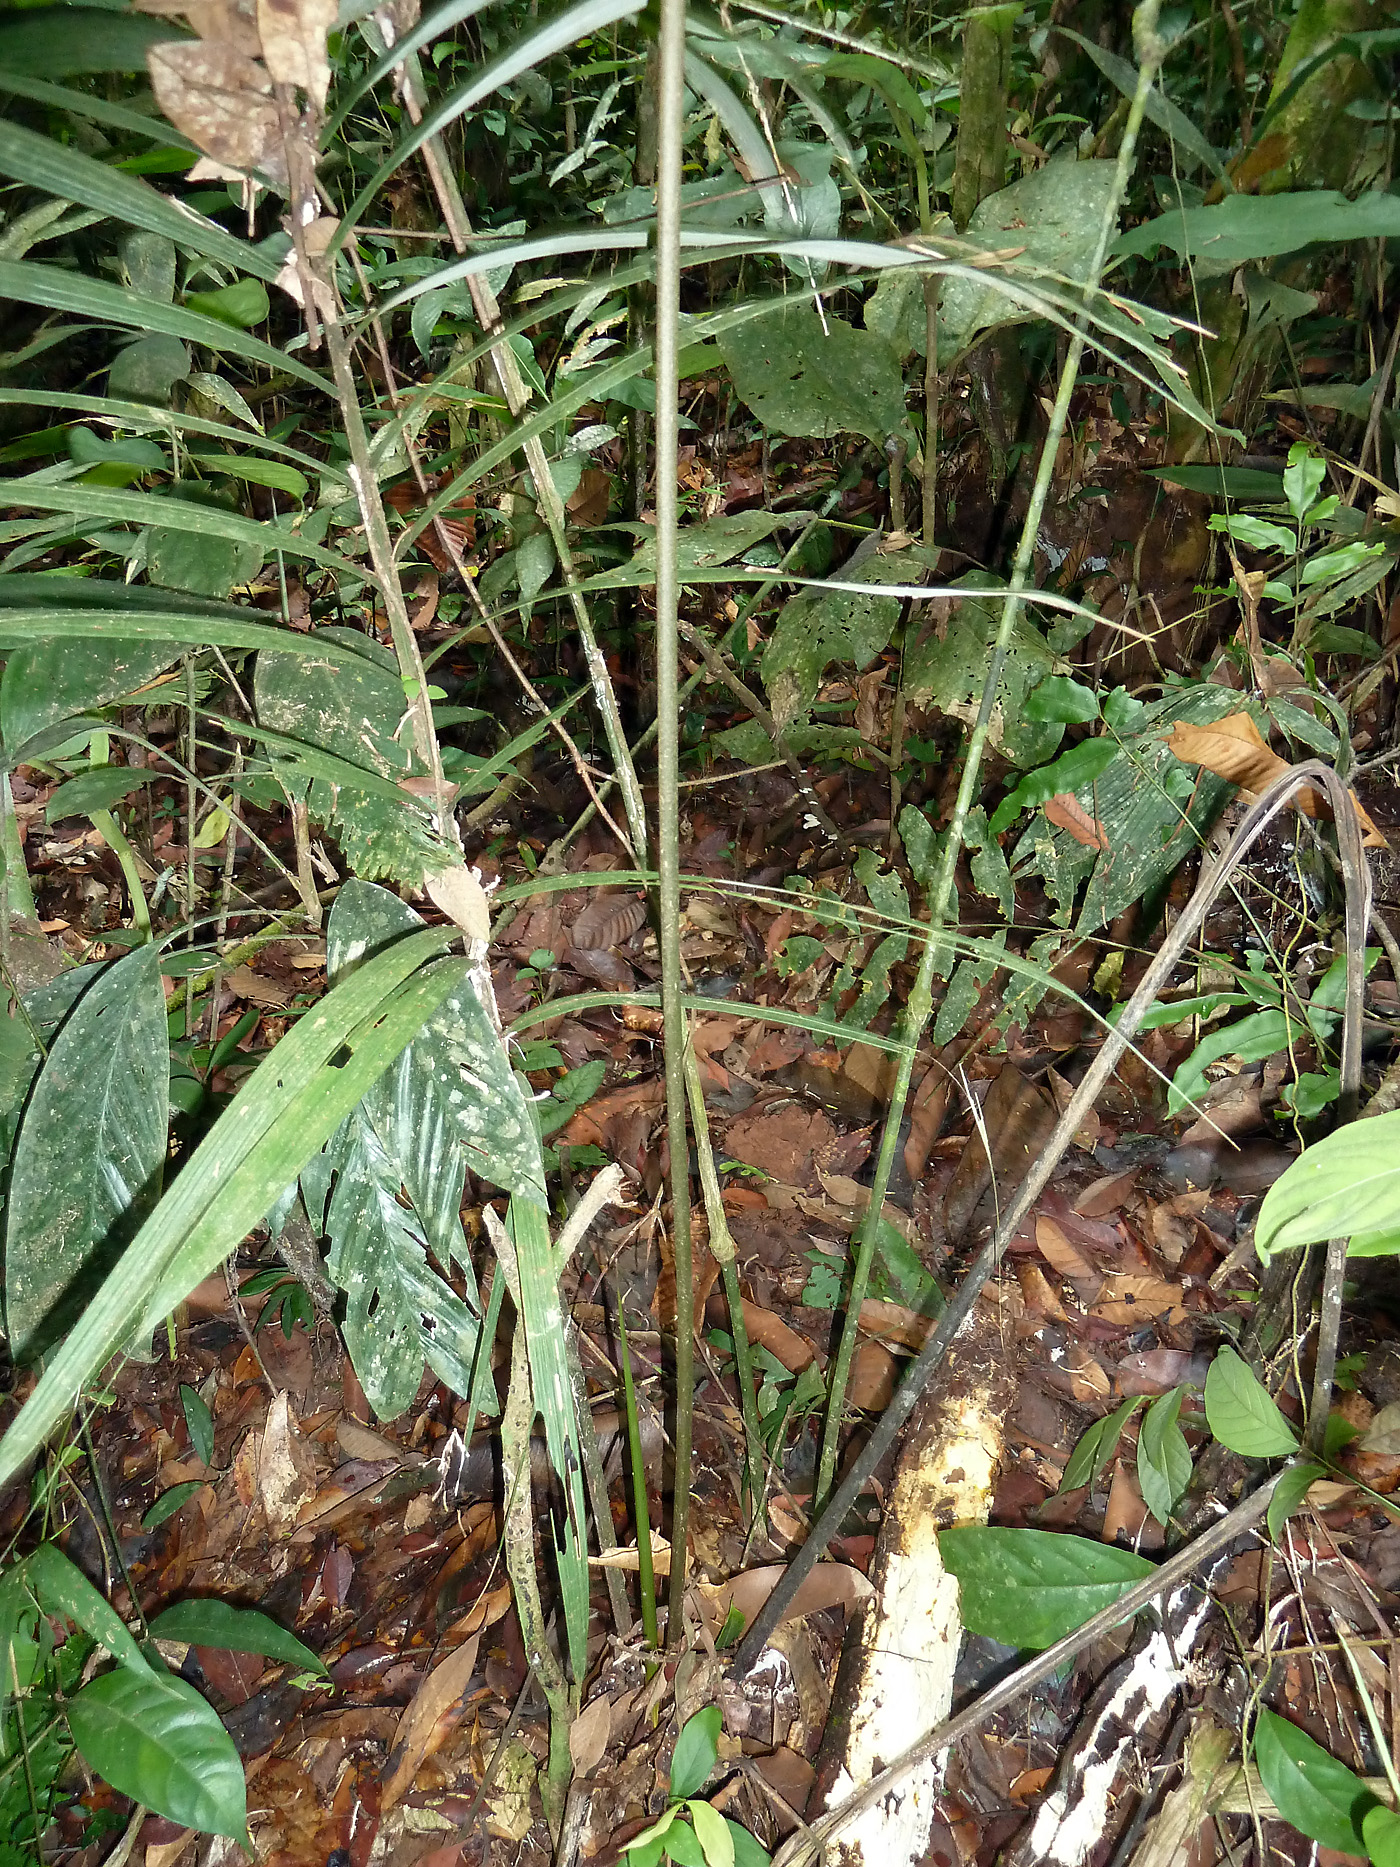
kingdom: Plantae
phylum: Tracheophyta
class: Liliopsida
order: Arecales
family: Arecaceae
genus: Oenocarpus
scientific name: Oenocarpus bataua
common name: Bataua palm
